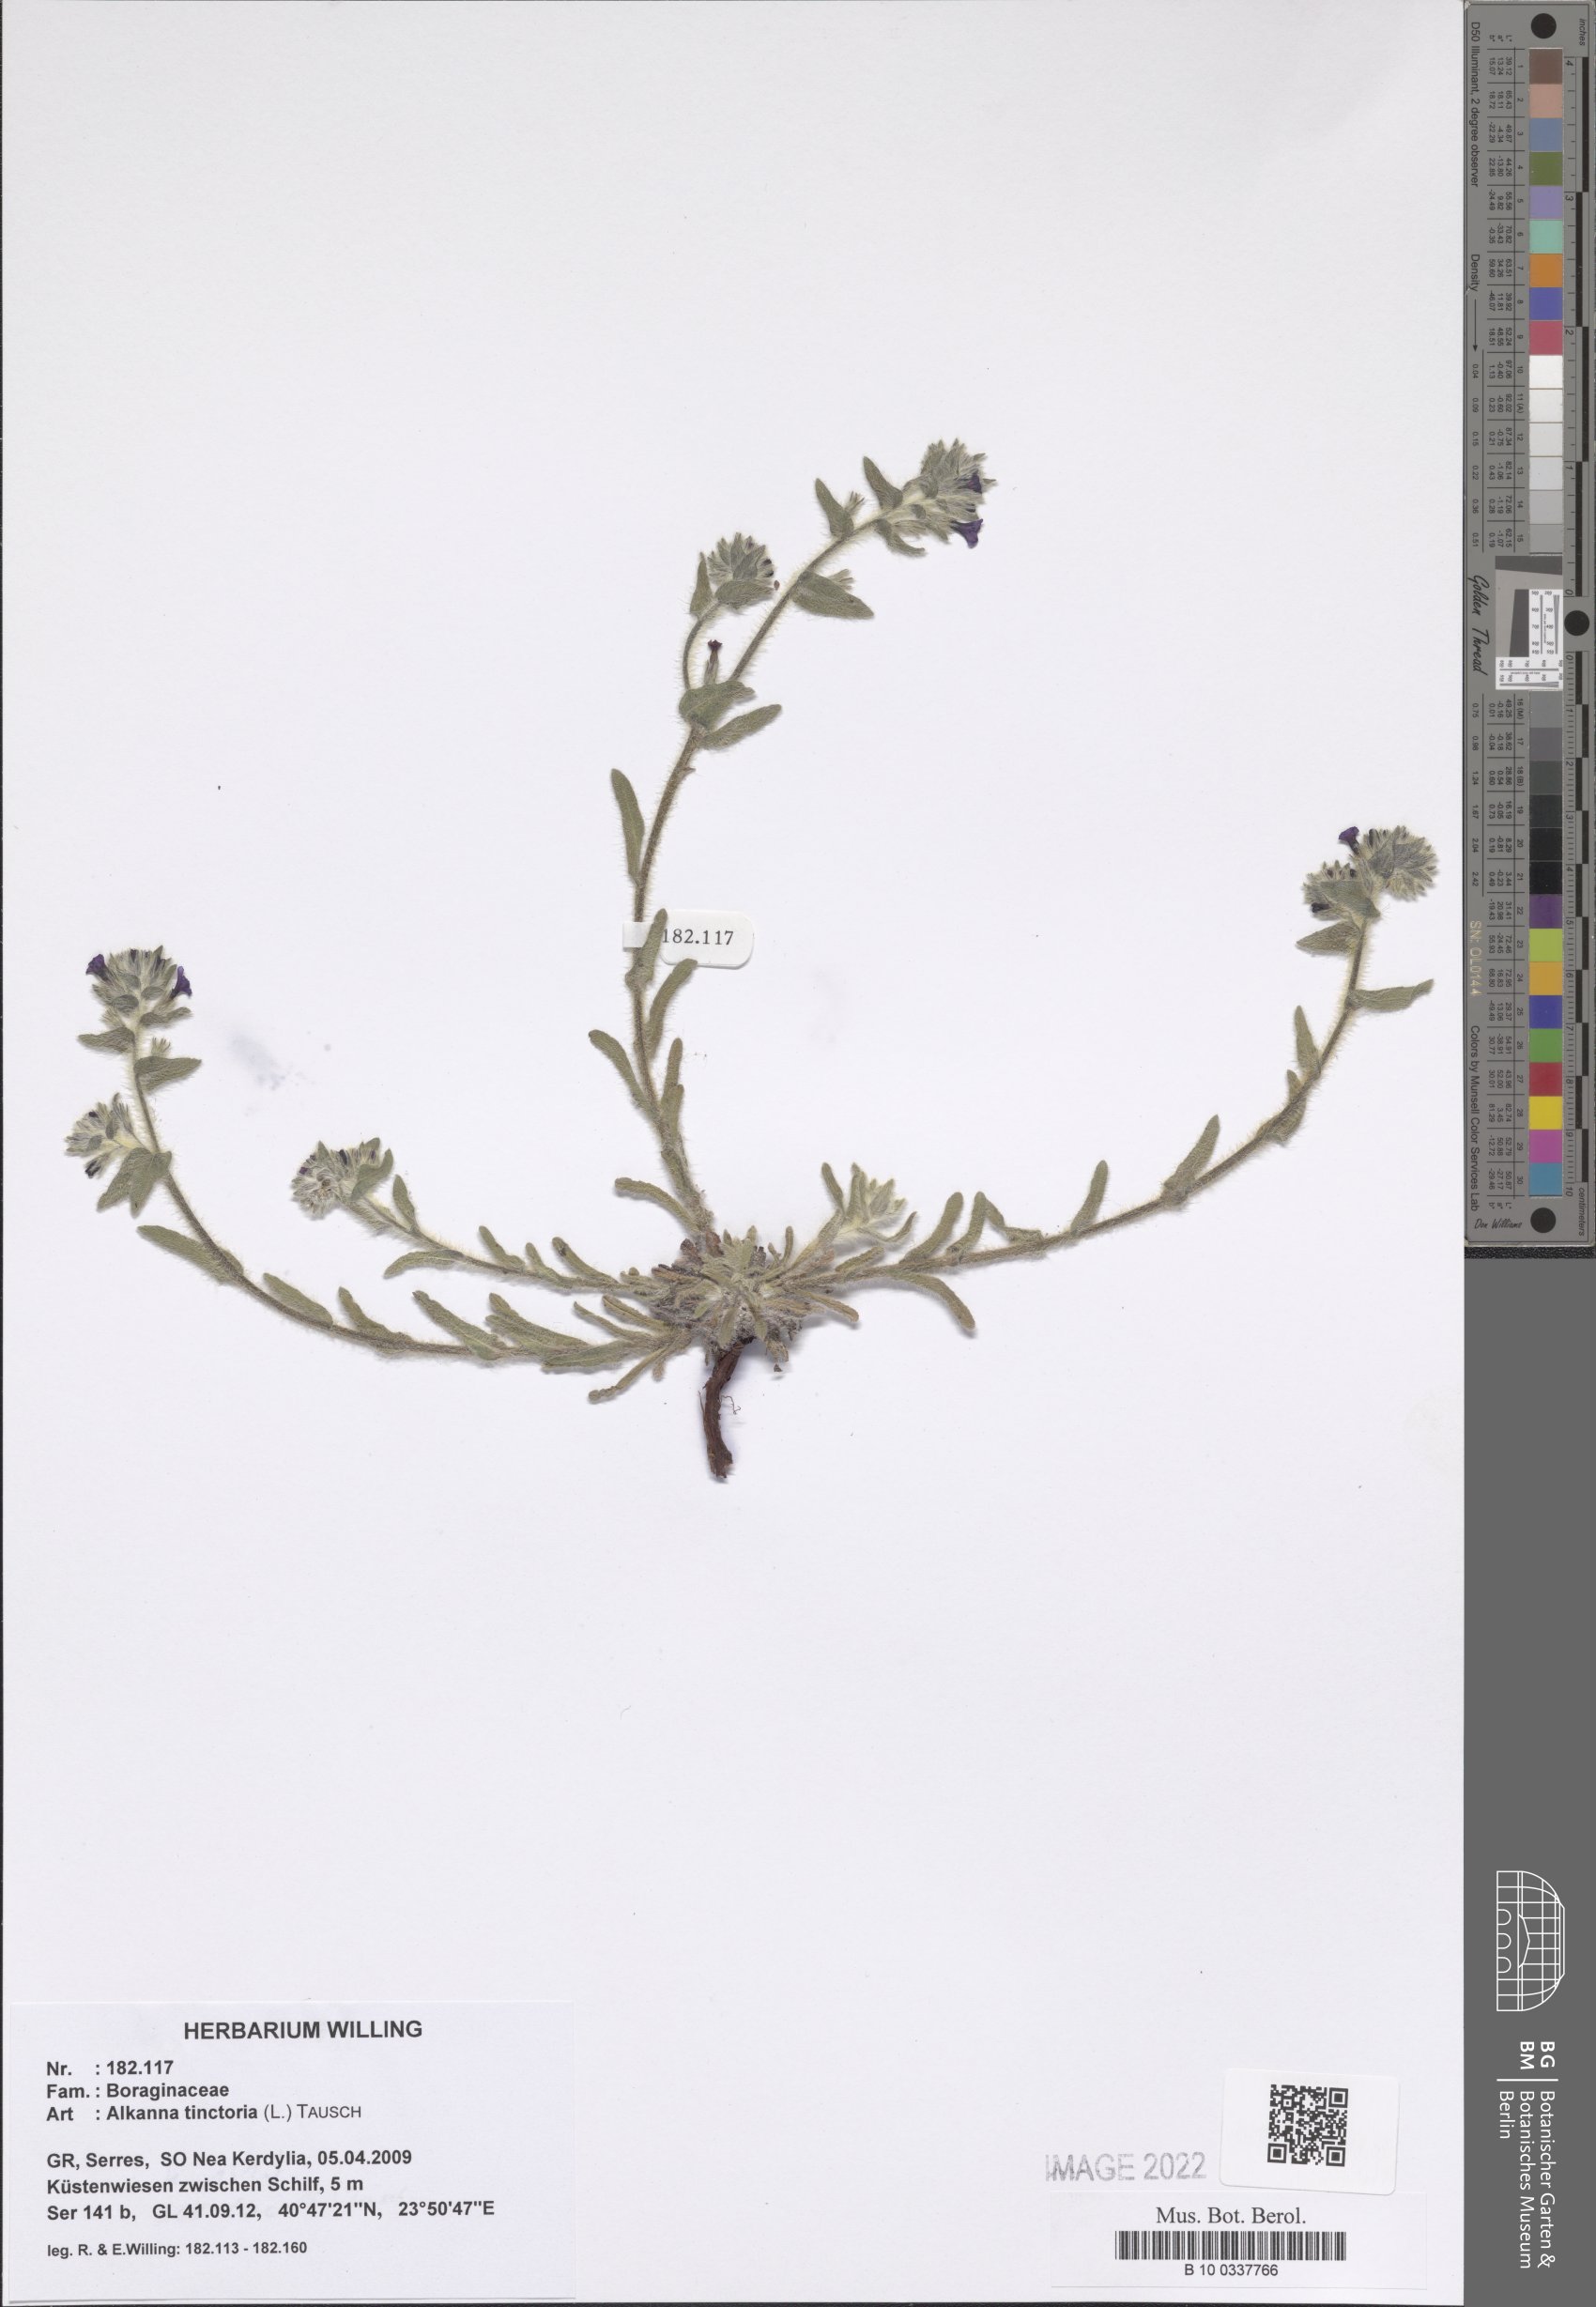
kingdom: Plantae
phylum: Tracheophyta
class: Magnoliopsida
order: Boraginales
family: Boraginaceae
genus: Alkanna
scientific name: Alkanna tinctoria
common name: Dyer's-alkanet
